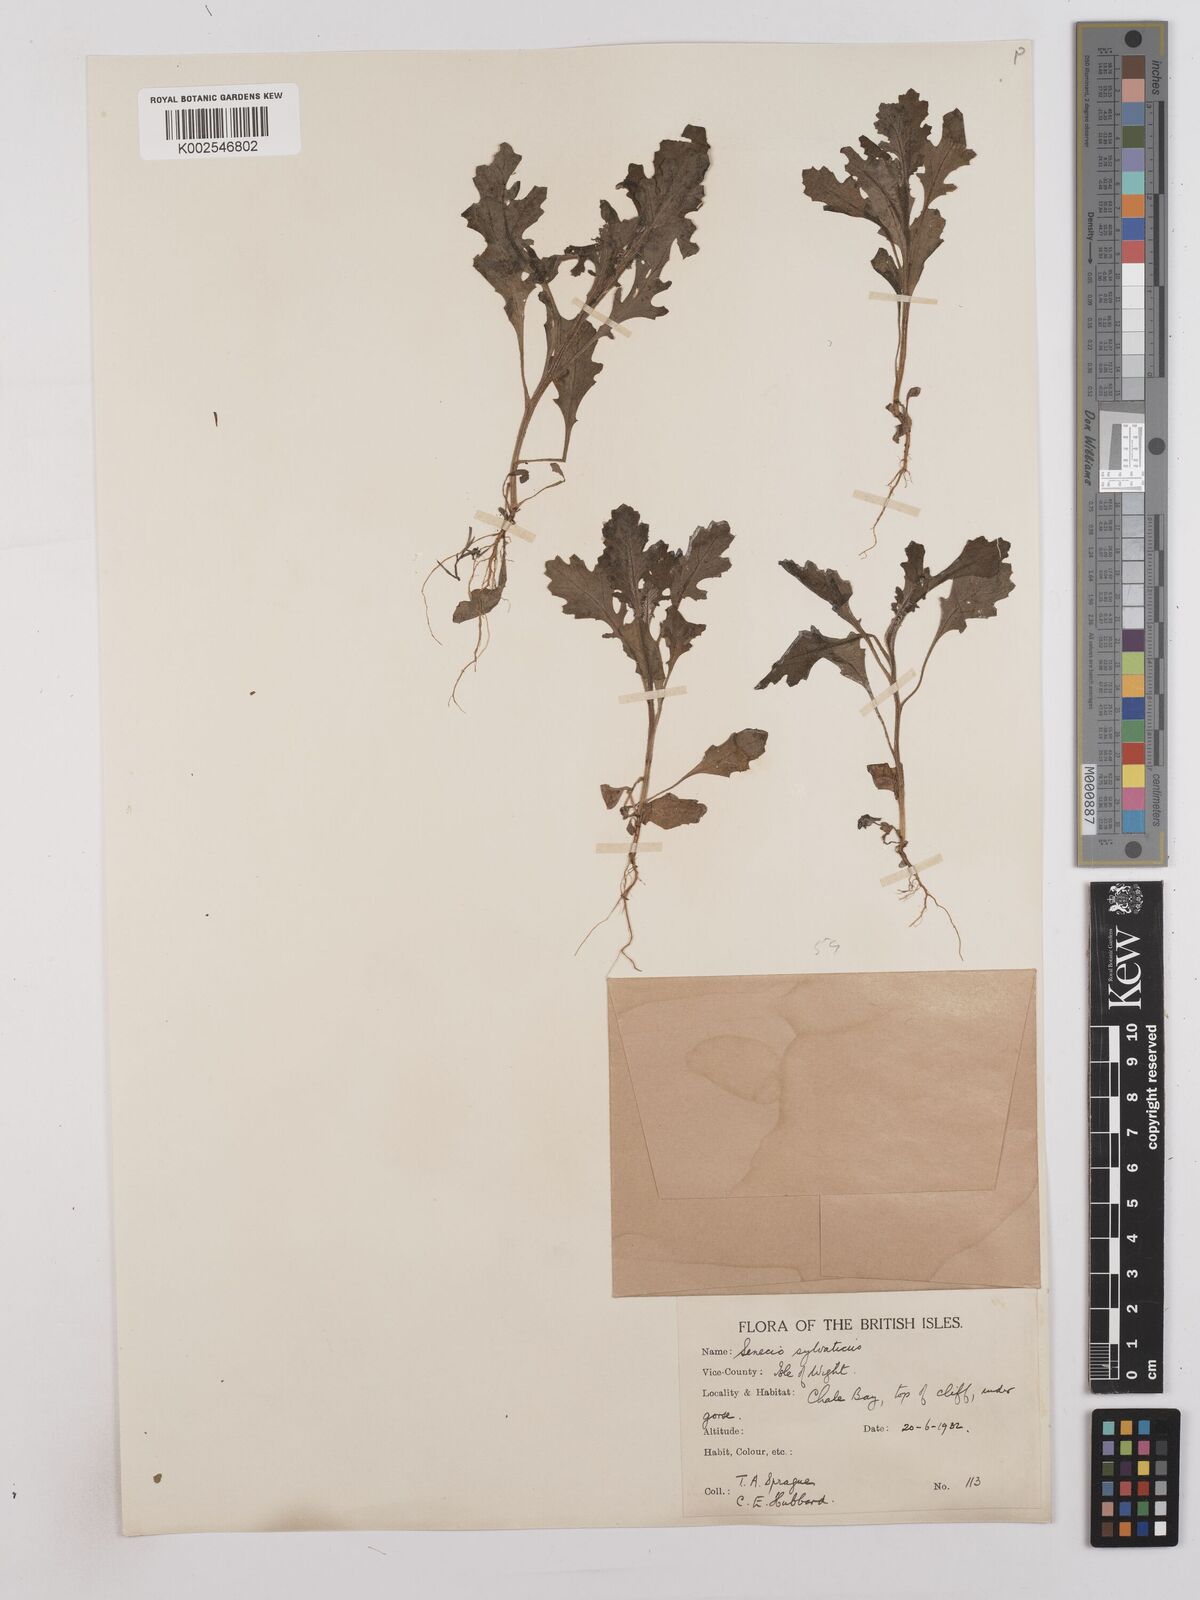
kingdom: Plantae
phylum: Tracheophyta
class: Magnoliopsida
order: Asterales
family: Asteraceae
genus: Senecio
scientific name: Senecio sylvaticus
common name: Woodland ragwort
